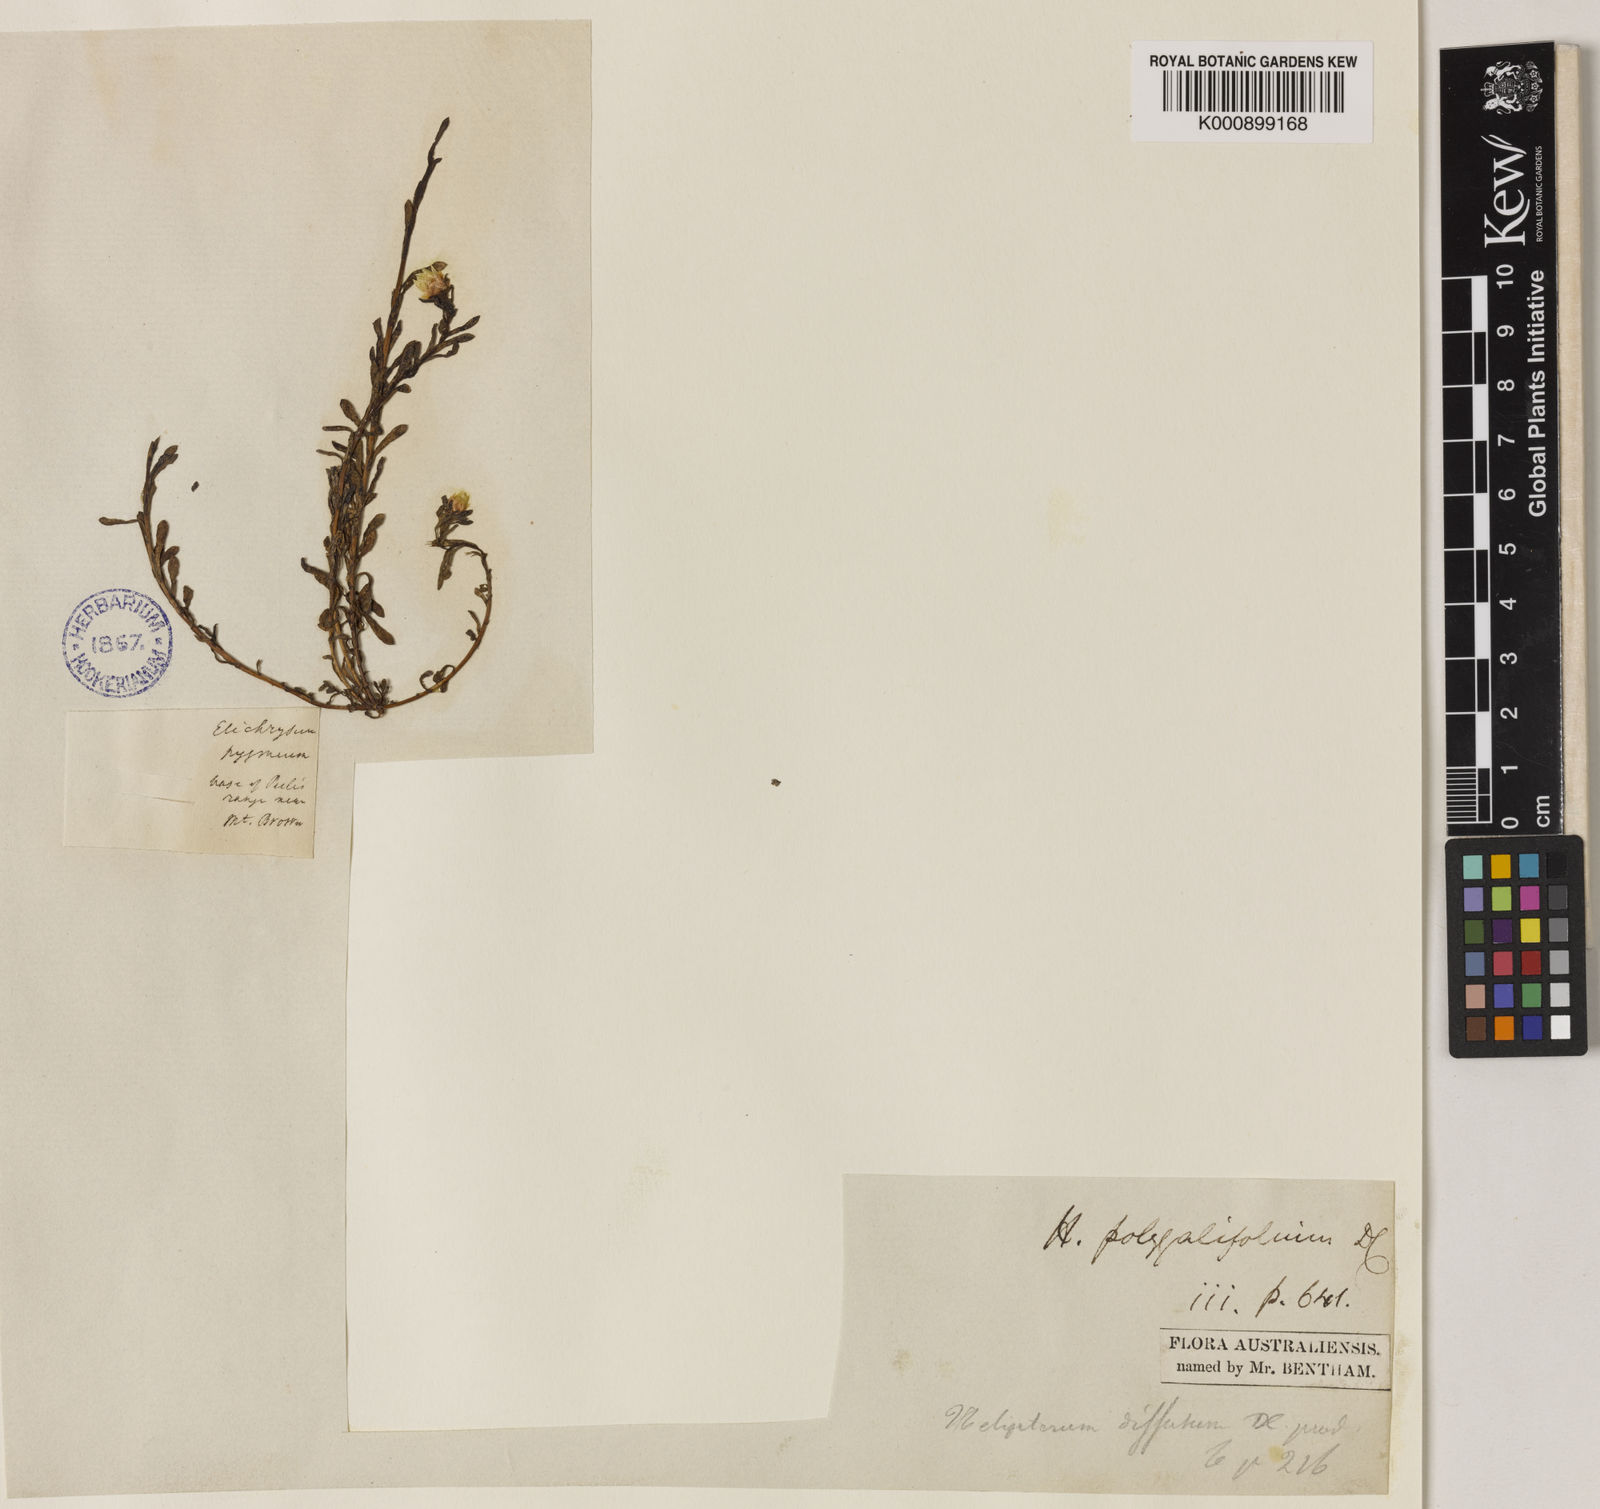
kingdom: Plantae
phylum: Tracheophyta
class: Magnoliopsida
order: Asterales
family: Asteraceae
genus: Rhodanthe
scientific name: Rhodanthe diffusa
